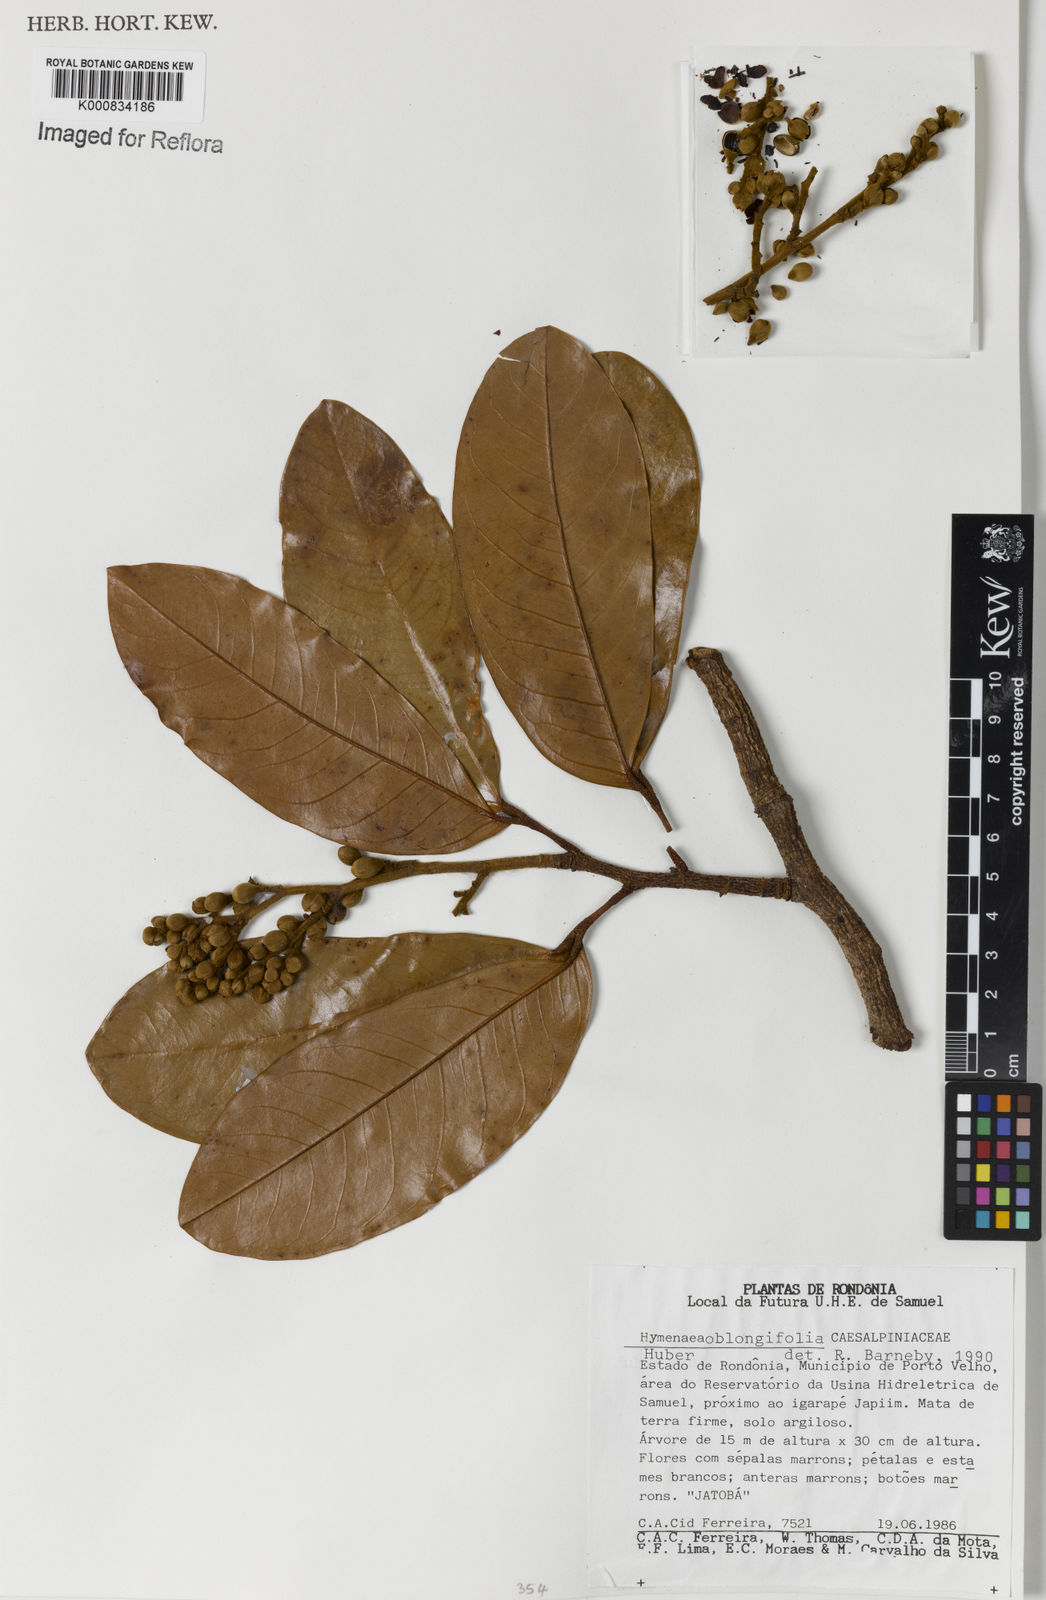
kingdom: Plantae
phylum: Tracheophyta
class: Magnoliopsida
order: Fabales
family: Fabaceae
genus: Hymenaea
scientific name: Hymenaea oblongifolia
